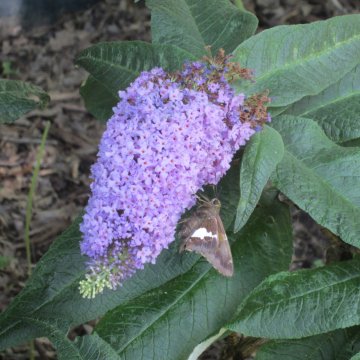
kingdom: Animalia
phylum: Arthropoda
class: Insecta
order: Lepidoptera
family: Hesperiidae
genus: Epargyreus
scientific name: Epargyreus clarus
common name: Silver-spotted Skipper
